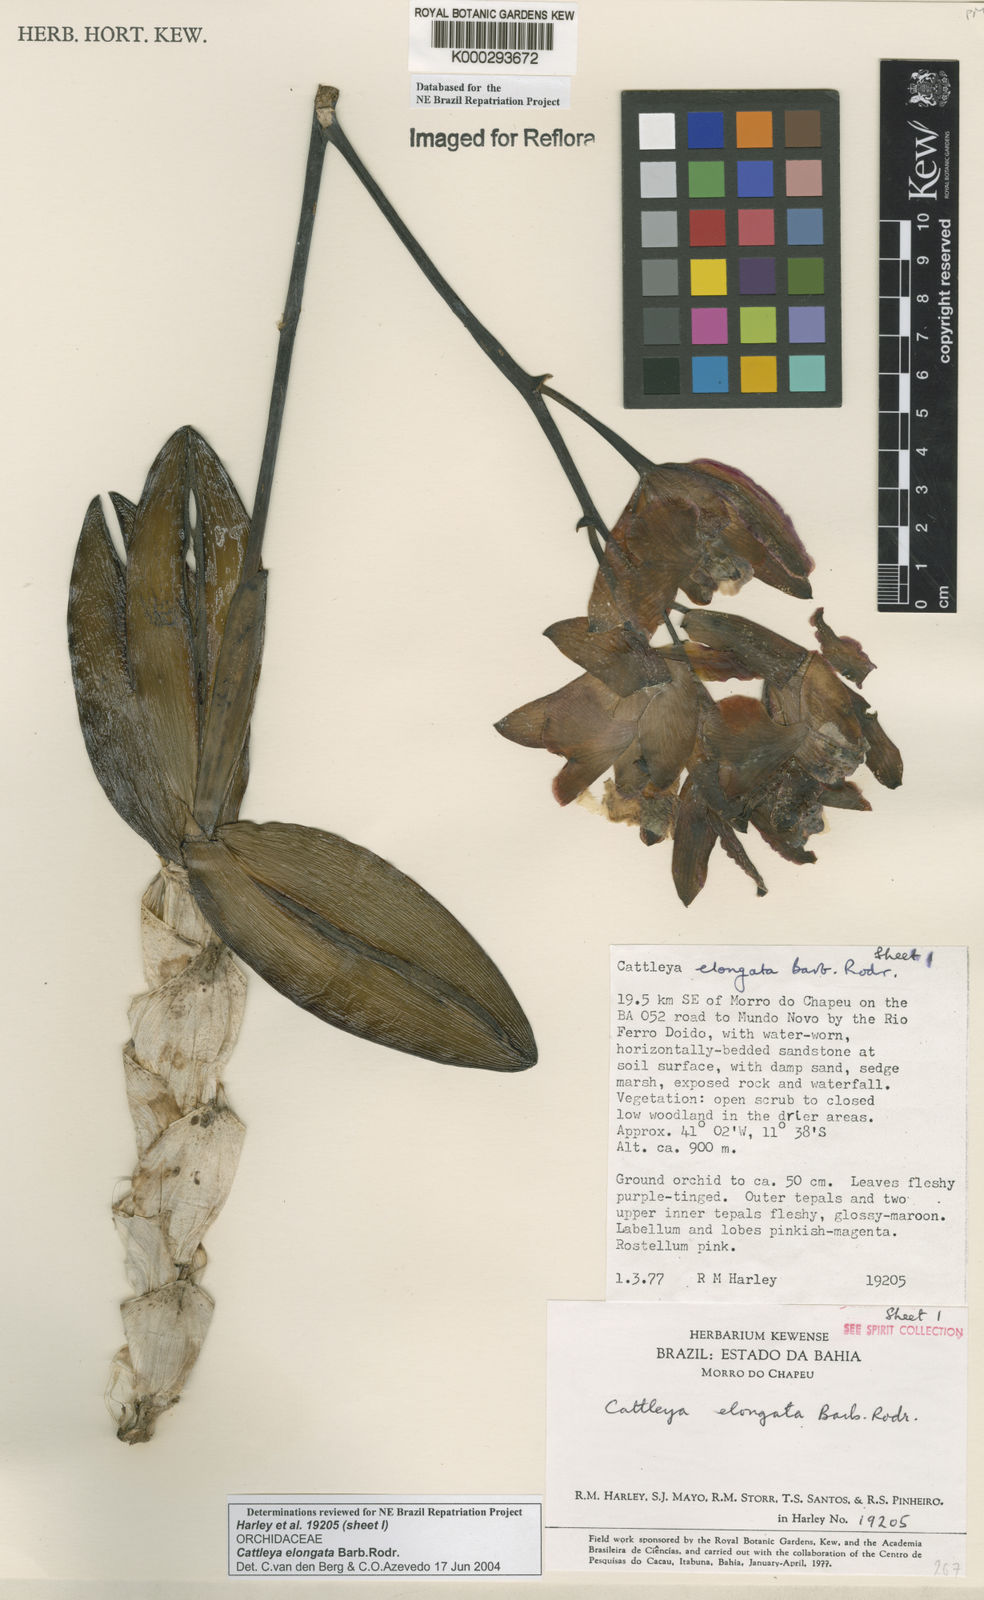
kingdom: Plantae
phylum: Tracheophyta
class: Liliopsida
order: Asparagales
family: Orchidaceae
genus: Cattleya
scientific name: Cattleya elongata
